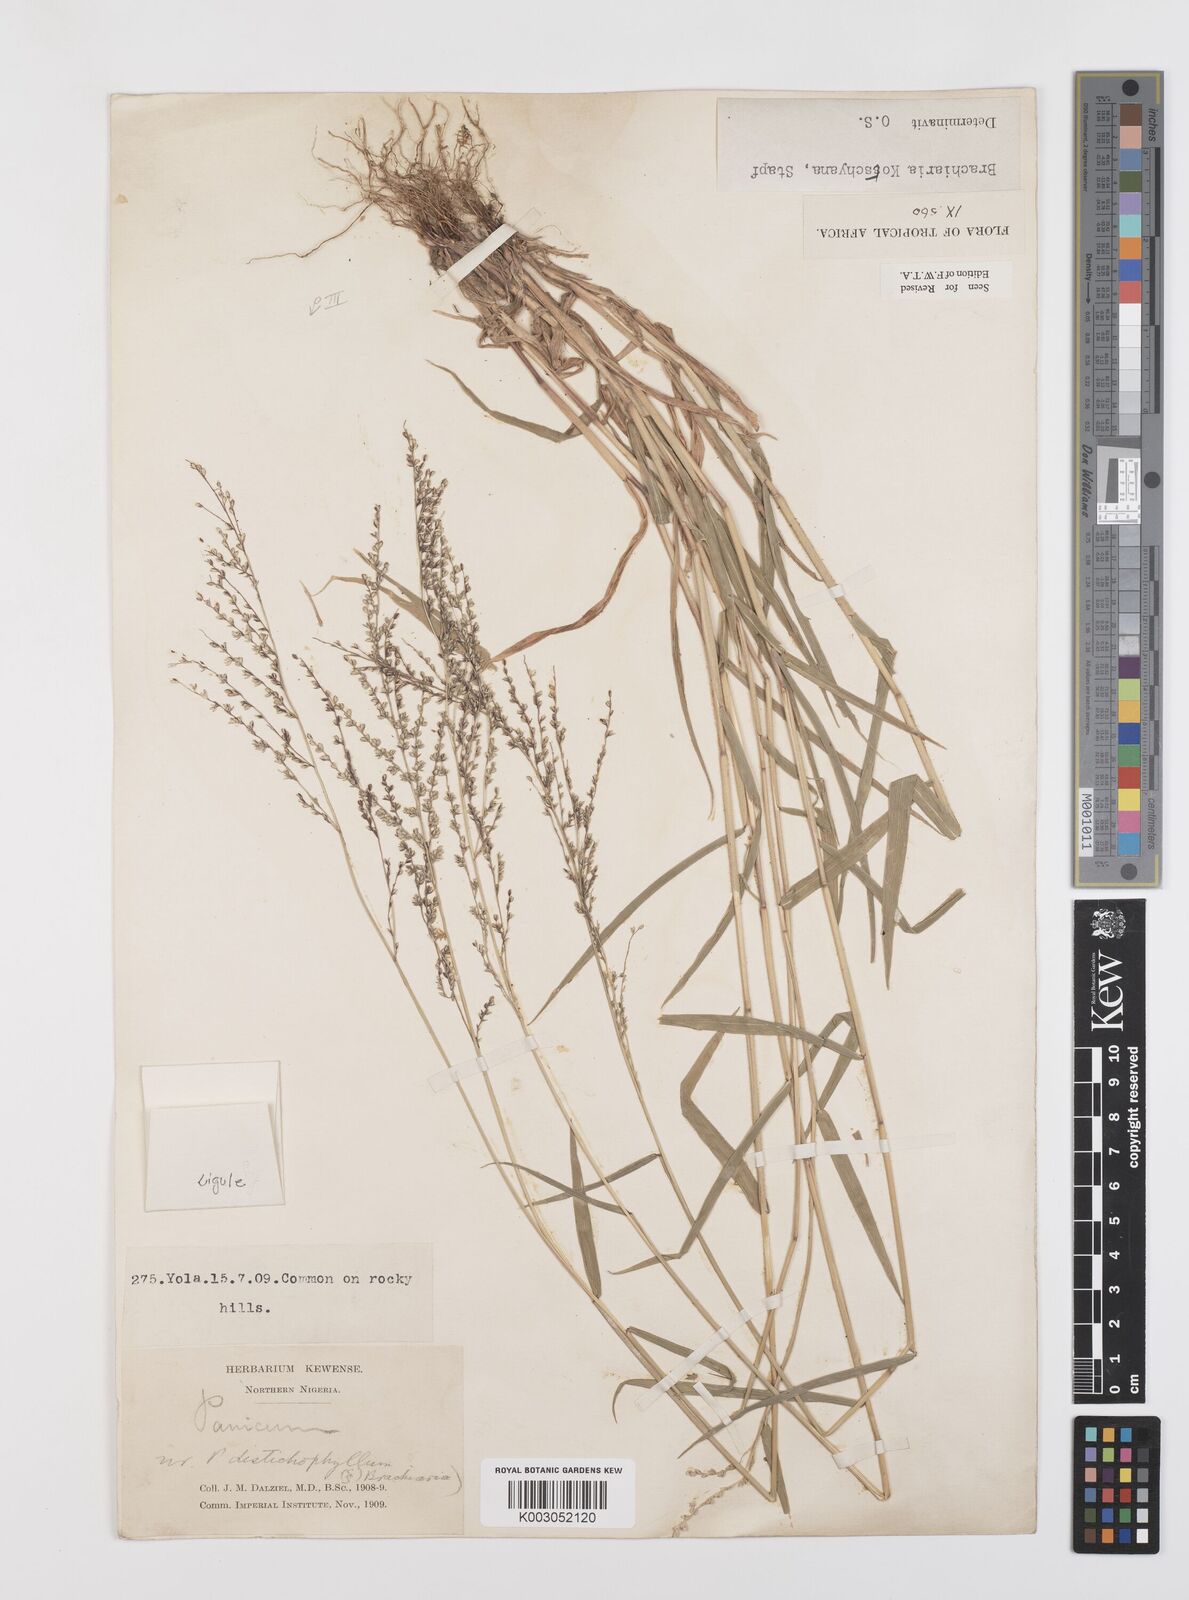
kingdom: Plantae
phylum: Tracheophyta
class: Liliopsida
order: Poales
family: Poaceae
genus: Urochloa
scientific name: Urochloa comata
